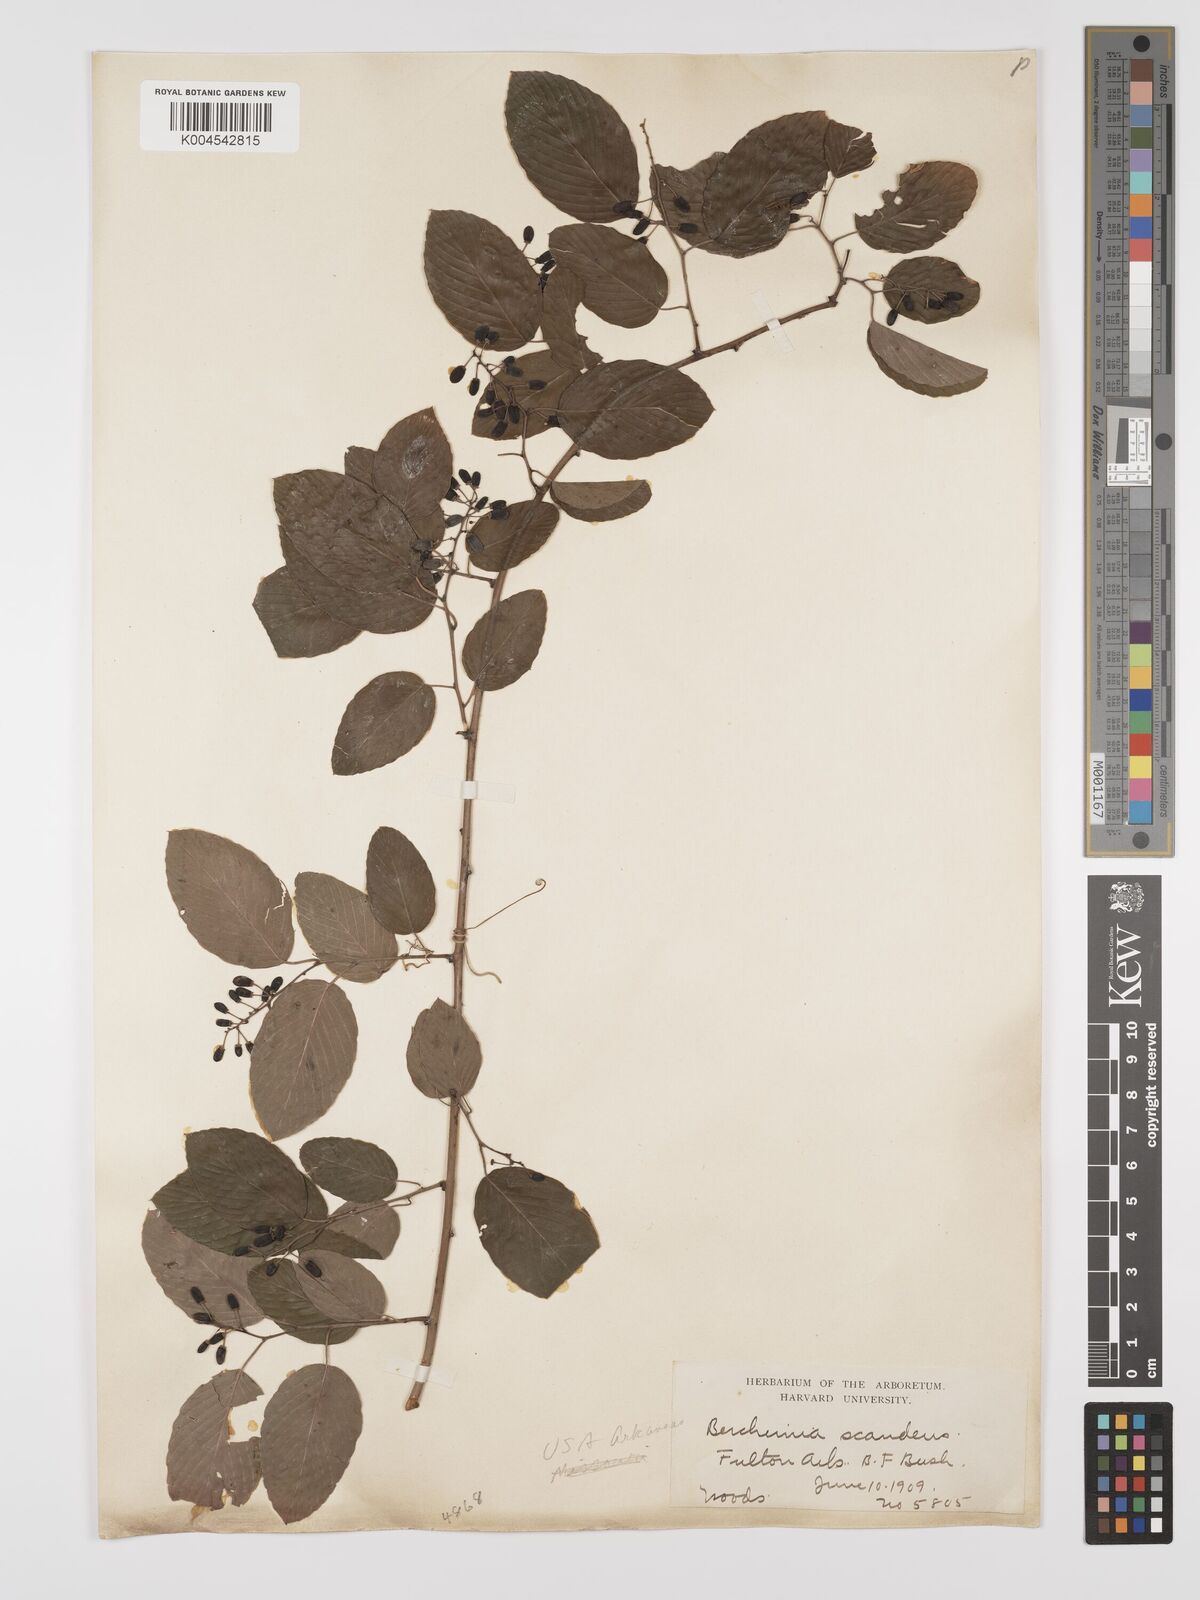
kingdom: Plantae
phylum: Tracheophyta
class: Magnoliopsida
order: Rosales
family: Rhamnaceae
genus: Berchemia
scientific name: Berchemia scandens
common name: Supplejack
